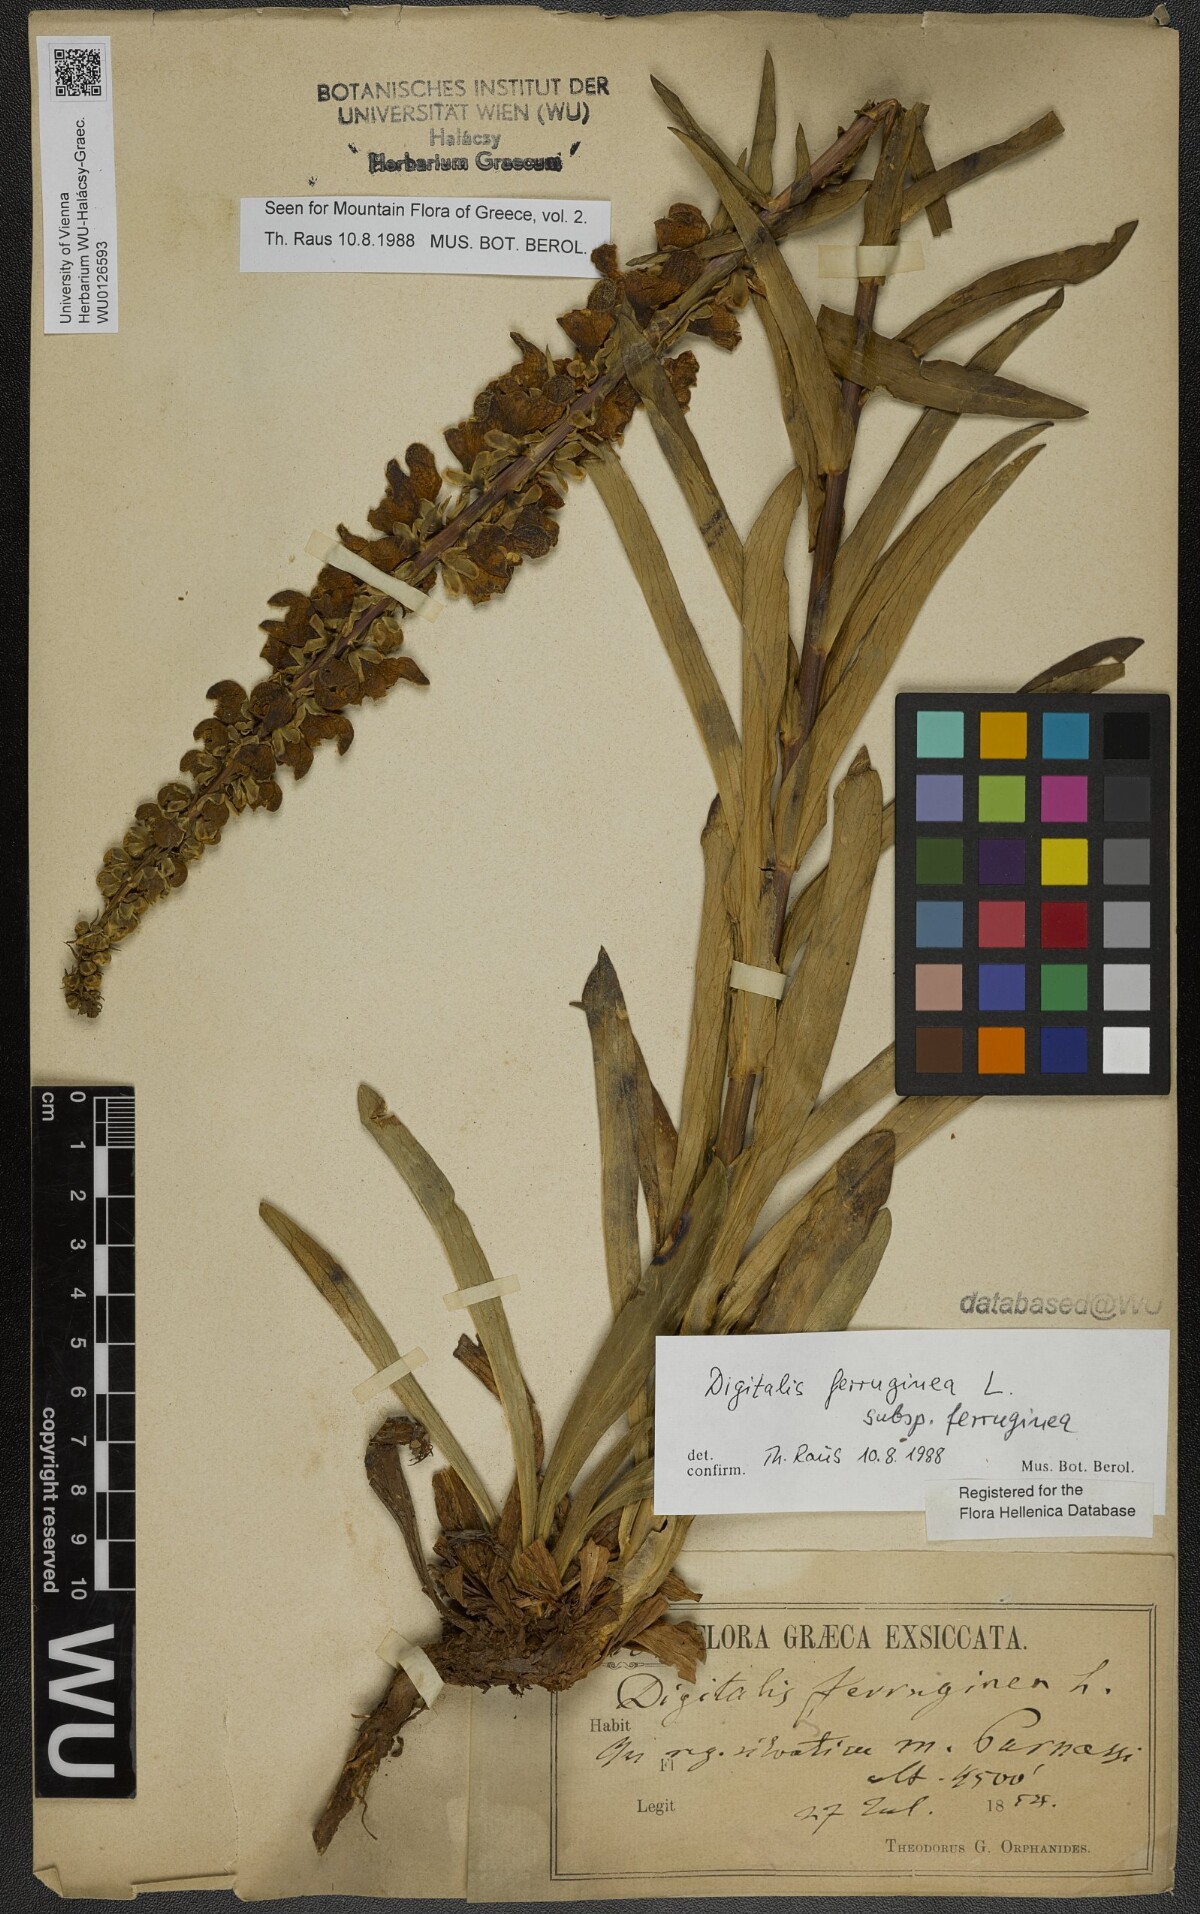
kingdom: Plantae
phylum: Tracheophyta
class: Magnoliopsida
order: Lamiales
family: Plantaginaceae
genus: Digitalis
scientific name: Digitalis ferruginea
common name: Rusty foxglove
